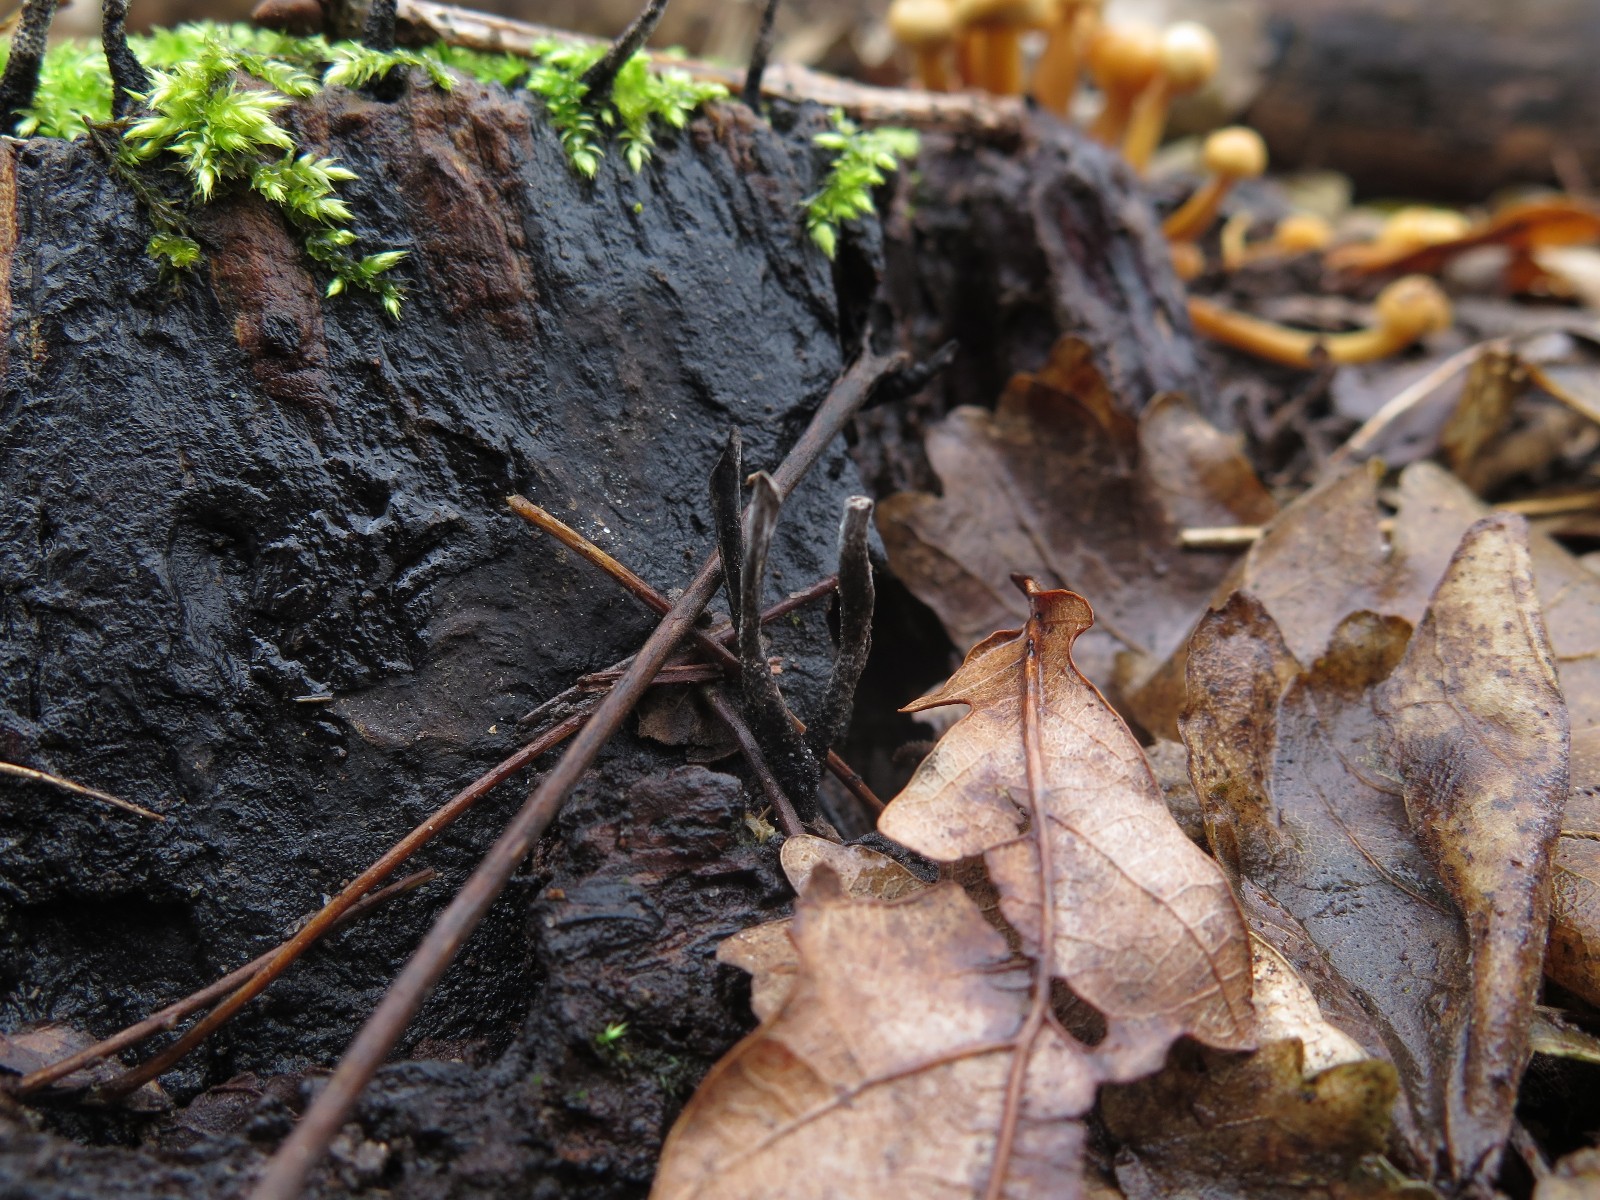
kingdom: Fungi
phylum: Ascomycota
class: Sordariomycetes
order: Xylariales
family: Xylariaceae
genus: Xylaria
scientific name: Xylaria hypoxylon
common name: grenet stødsvamp
